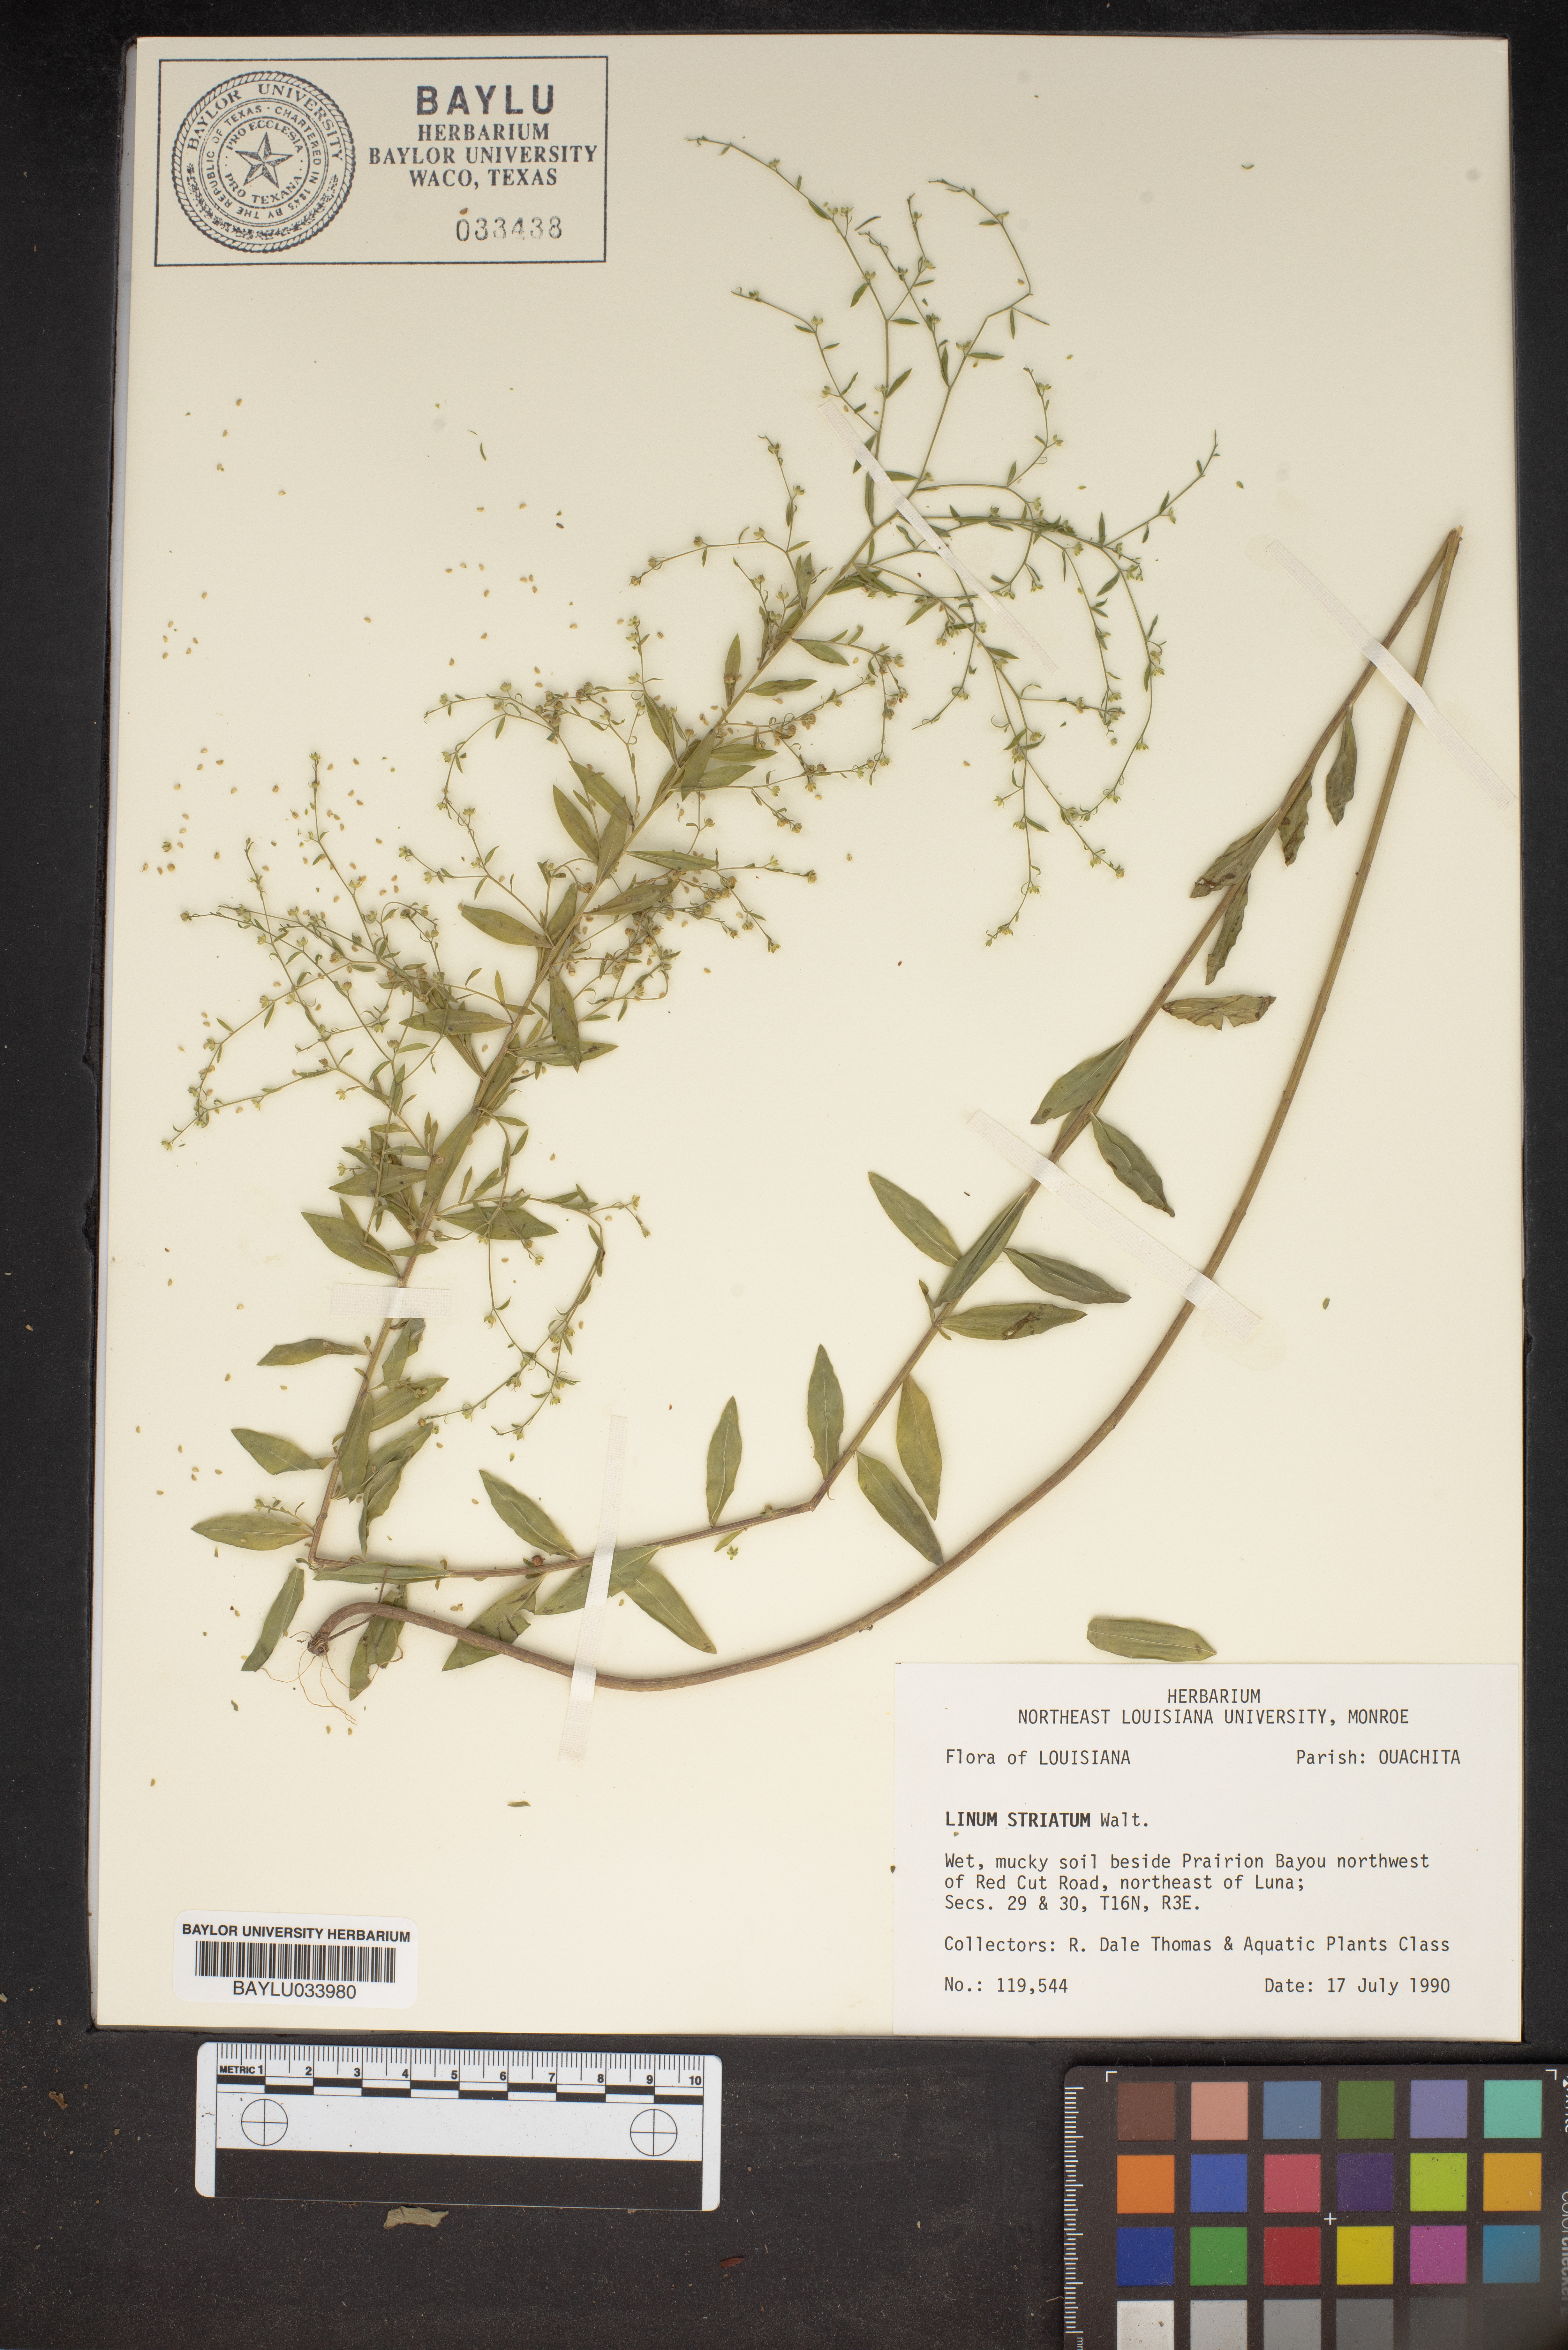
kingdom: Plantae
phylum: Tracheophyta
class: Magnoliopsida
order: Malpighiales
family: Linaceae
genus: Linum
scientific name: Linum striatum
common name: Ridged yellow flax
